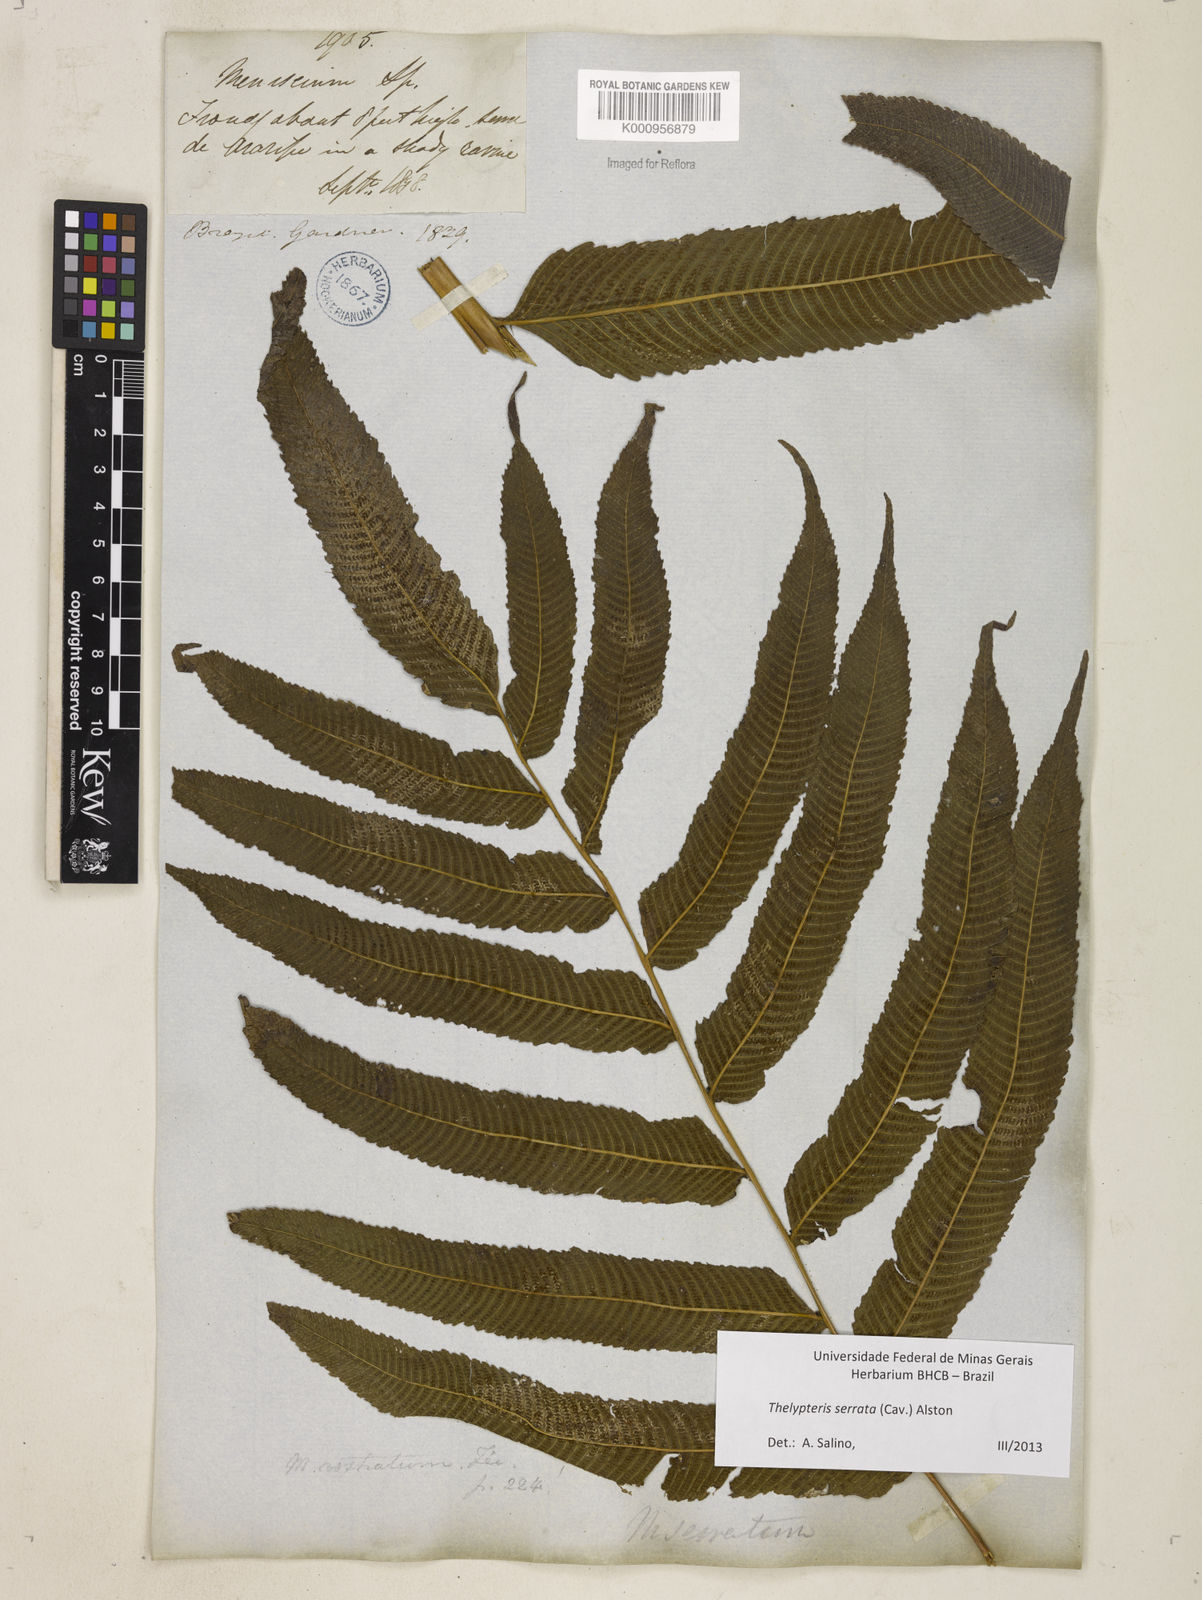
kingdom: Plantae
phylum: Tracheophyta
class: Polypodiopsida
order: Polypodiales
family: Thelypteridaceae
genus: Meniscium
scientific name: Meniscium serratum
